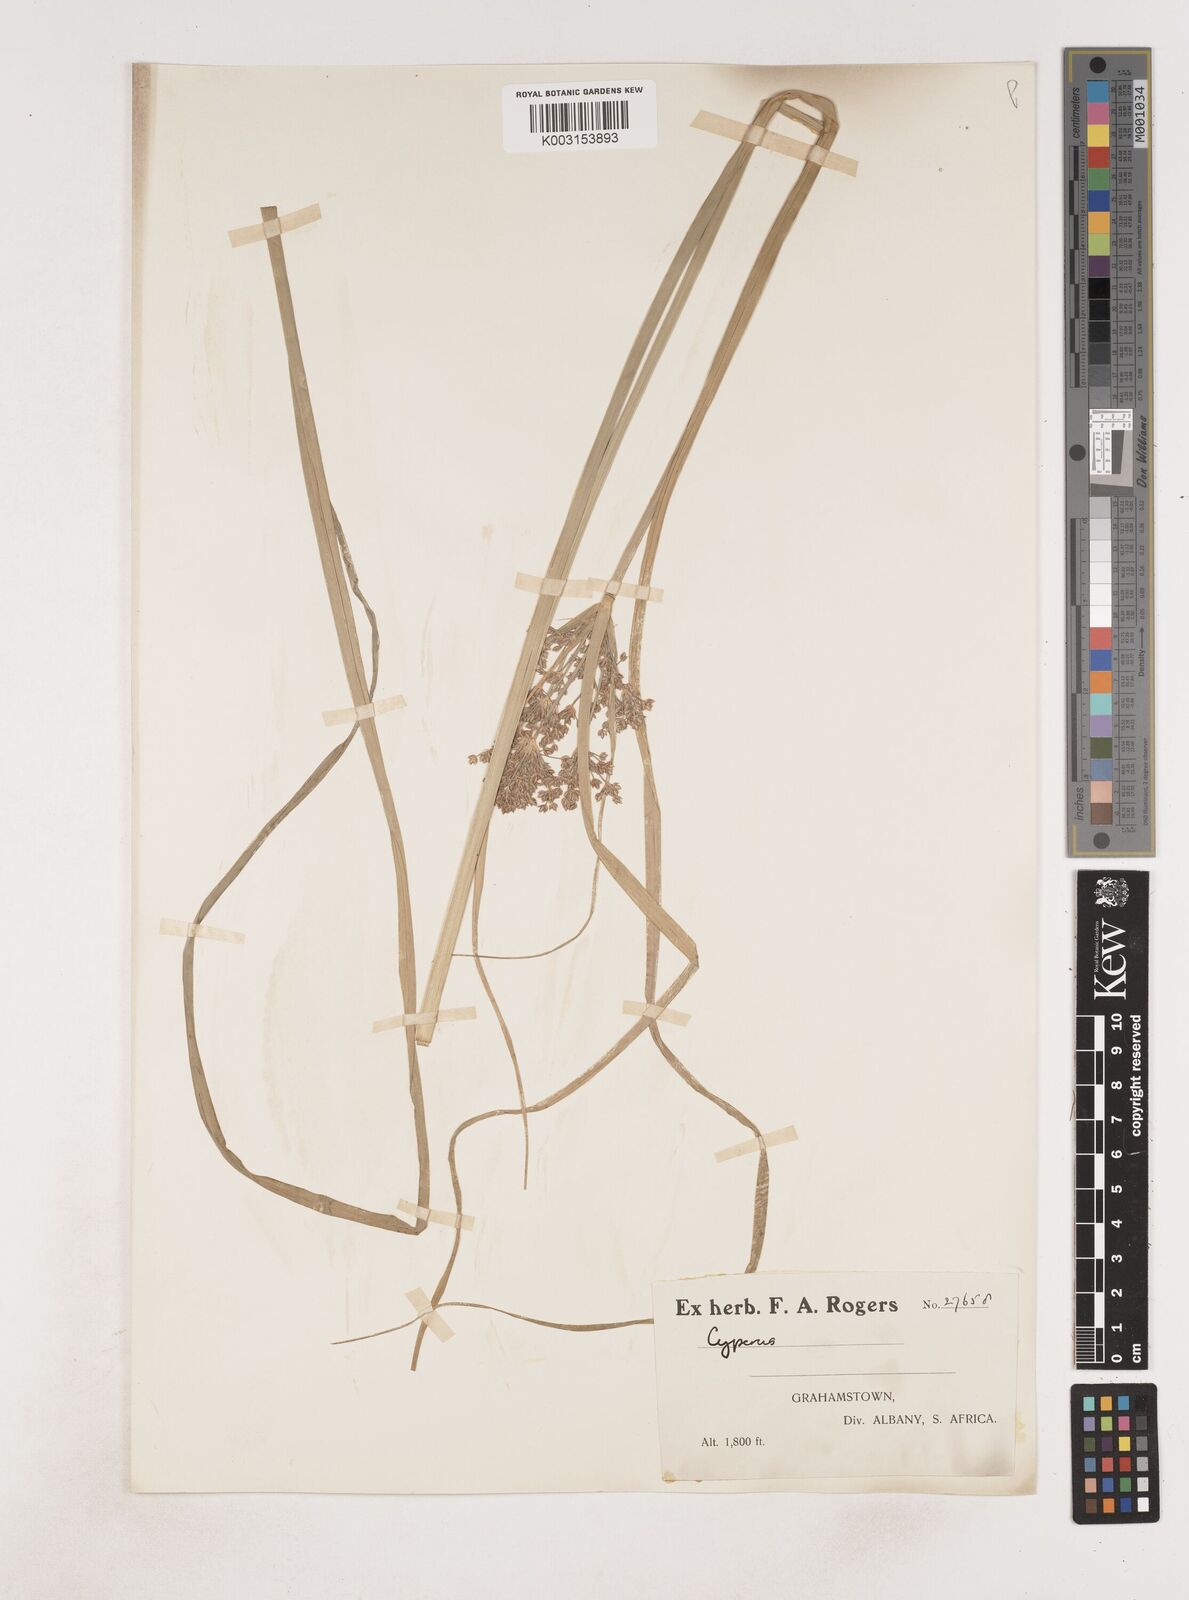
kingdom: Plantae
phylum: Tracheophyta
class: Liliopsida
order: Poales
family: Cyperaceae
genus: Cyperus
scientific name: Cyperus
